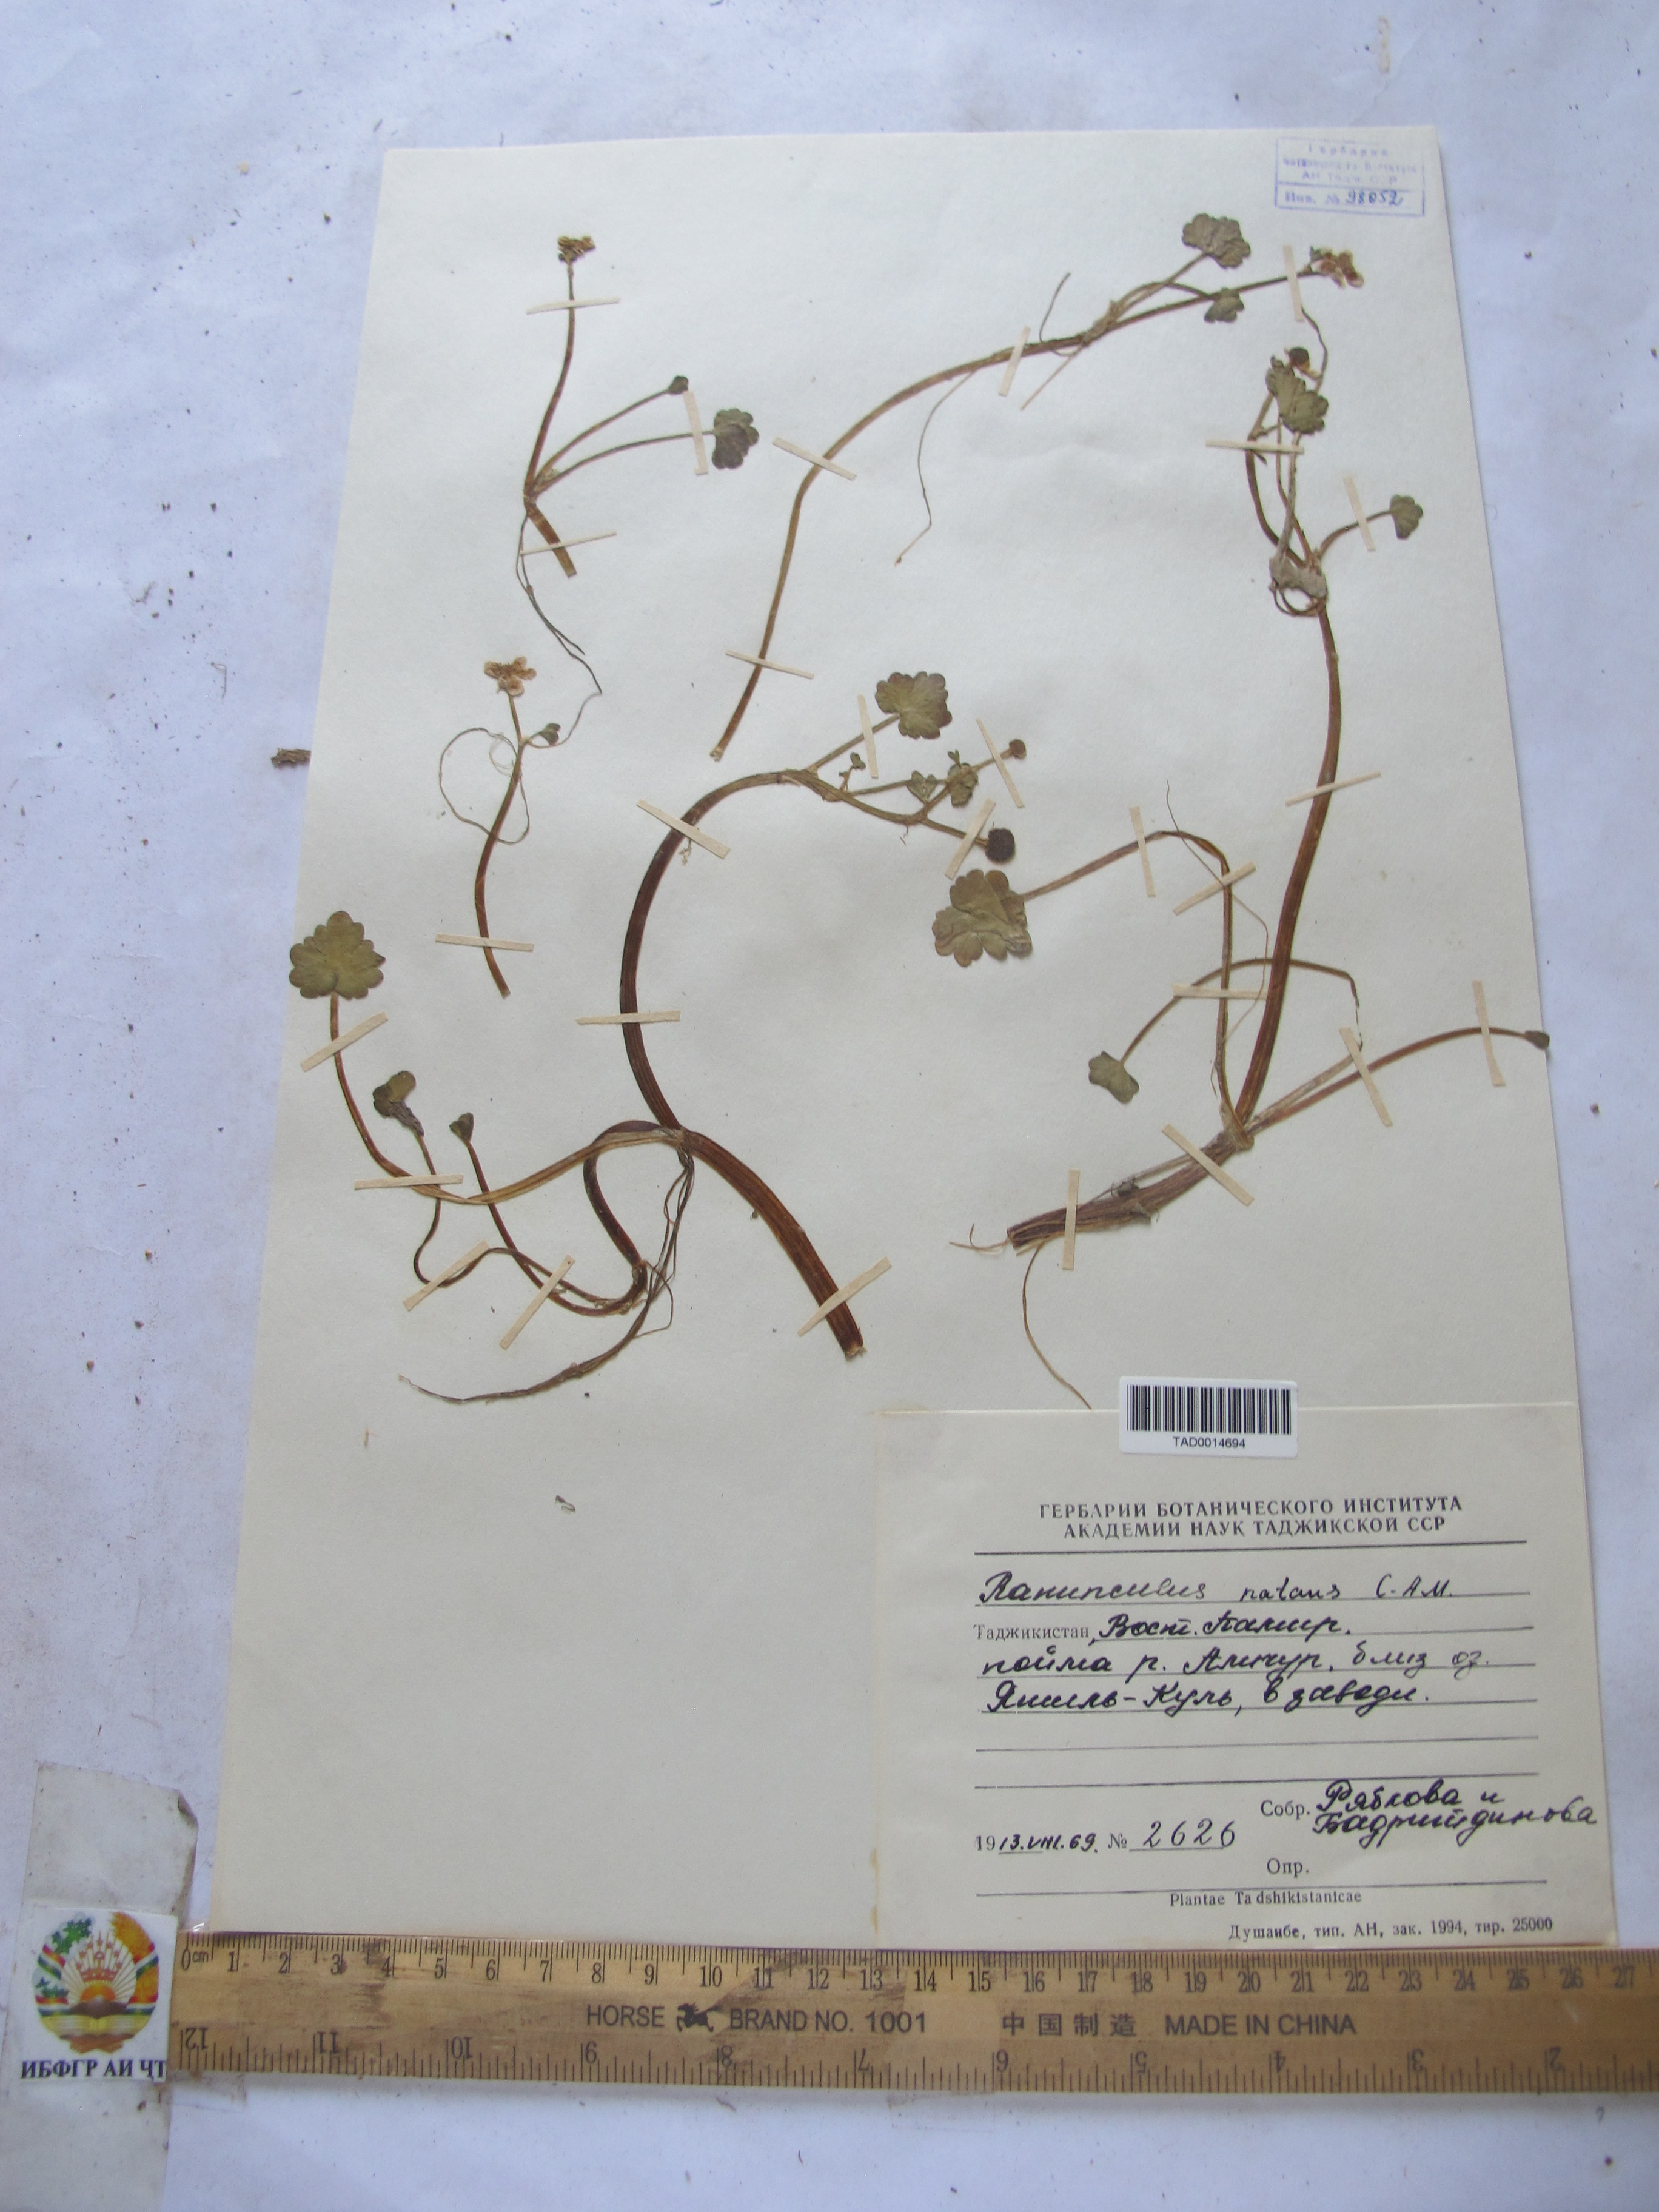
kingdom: Plantae
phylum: Tracheophyta
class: Magnoliopsida
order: Ranunculales
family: Ranunculaceae
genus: Ranunculus
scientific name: Ranunculus natans
